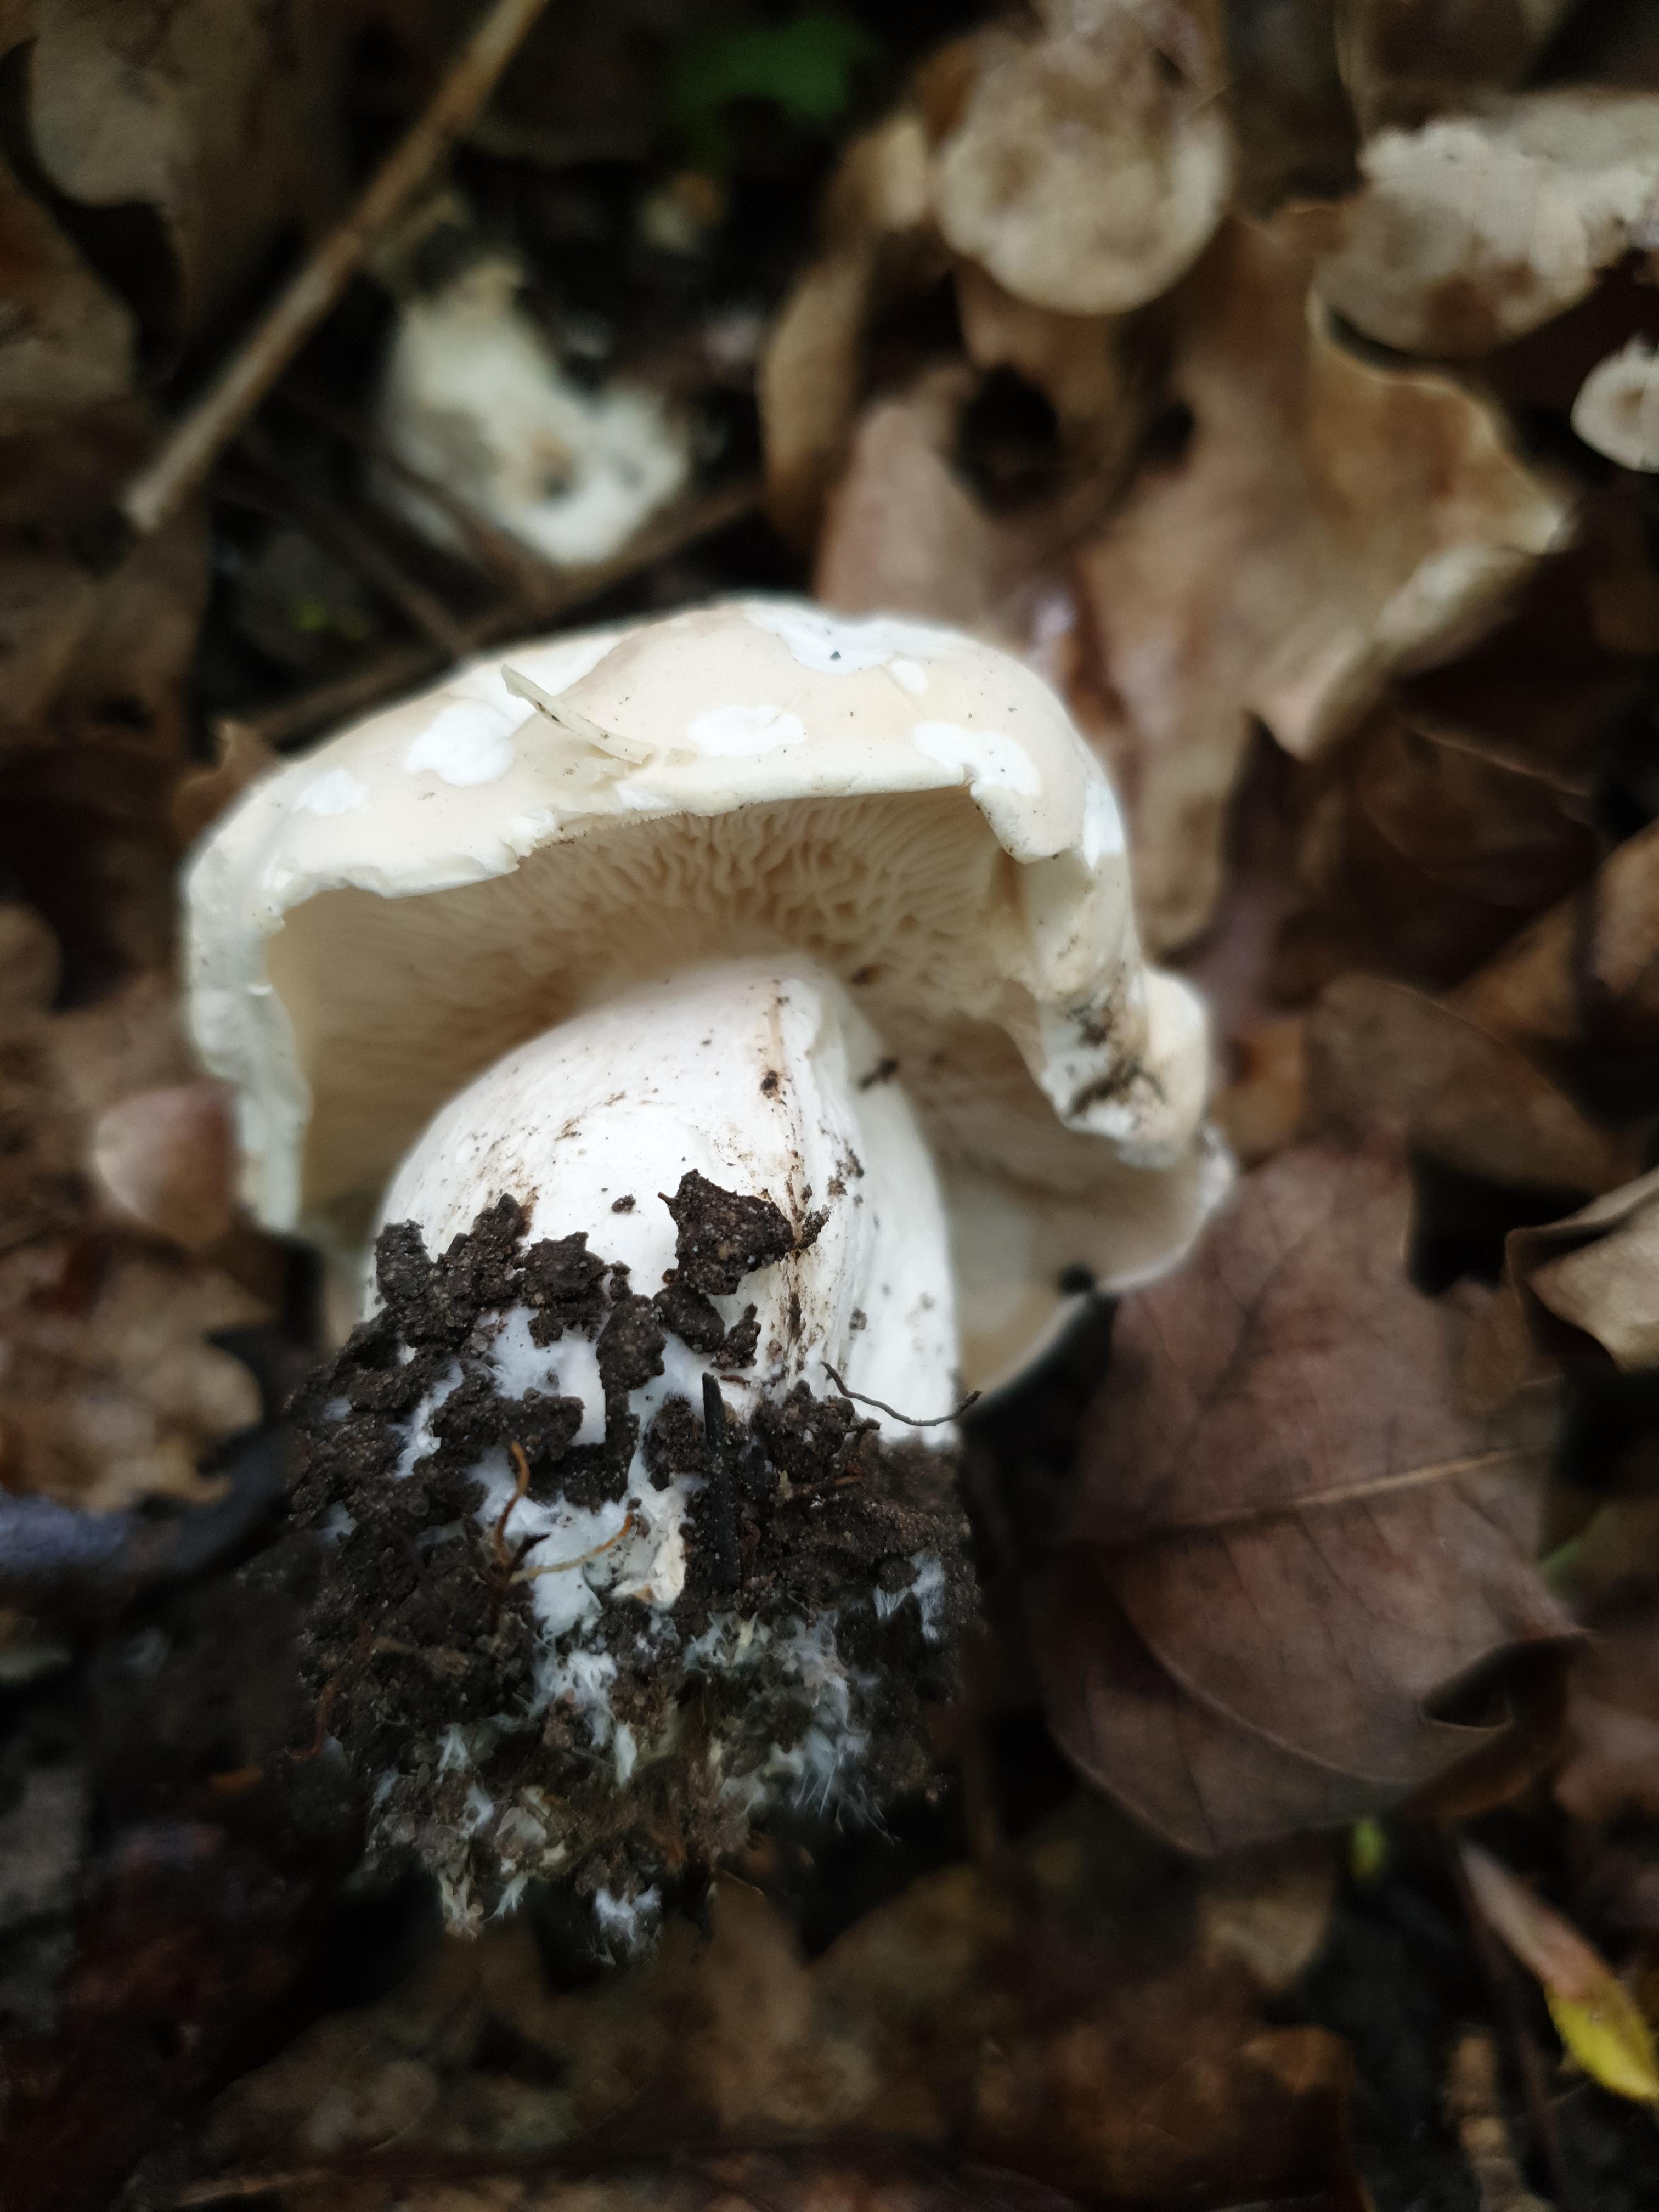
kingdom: Fungi
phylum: Basidiomycota
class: Agaricomycetes
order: Agaricales
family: Lyophyllaceae
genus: Calocybe
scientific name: Calocybe gambosa
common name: vårmusseron
